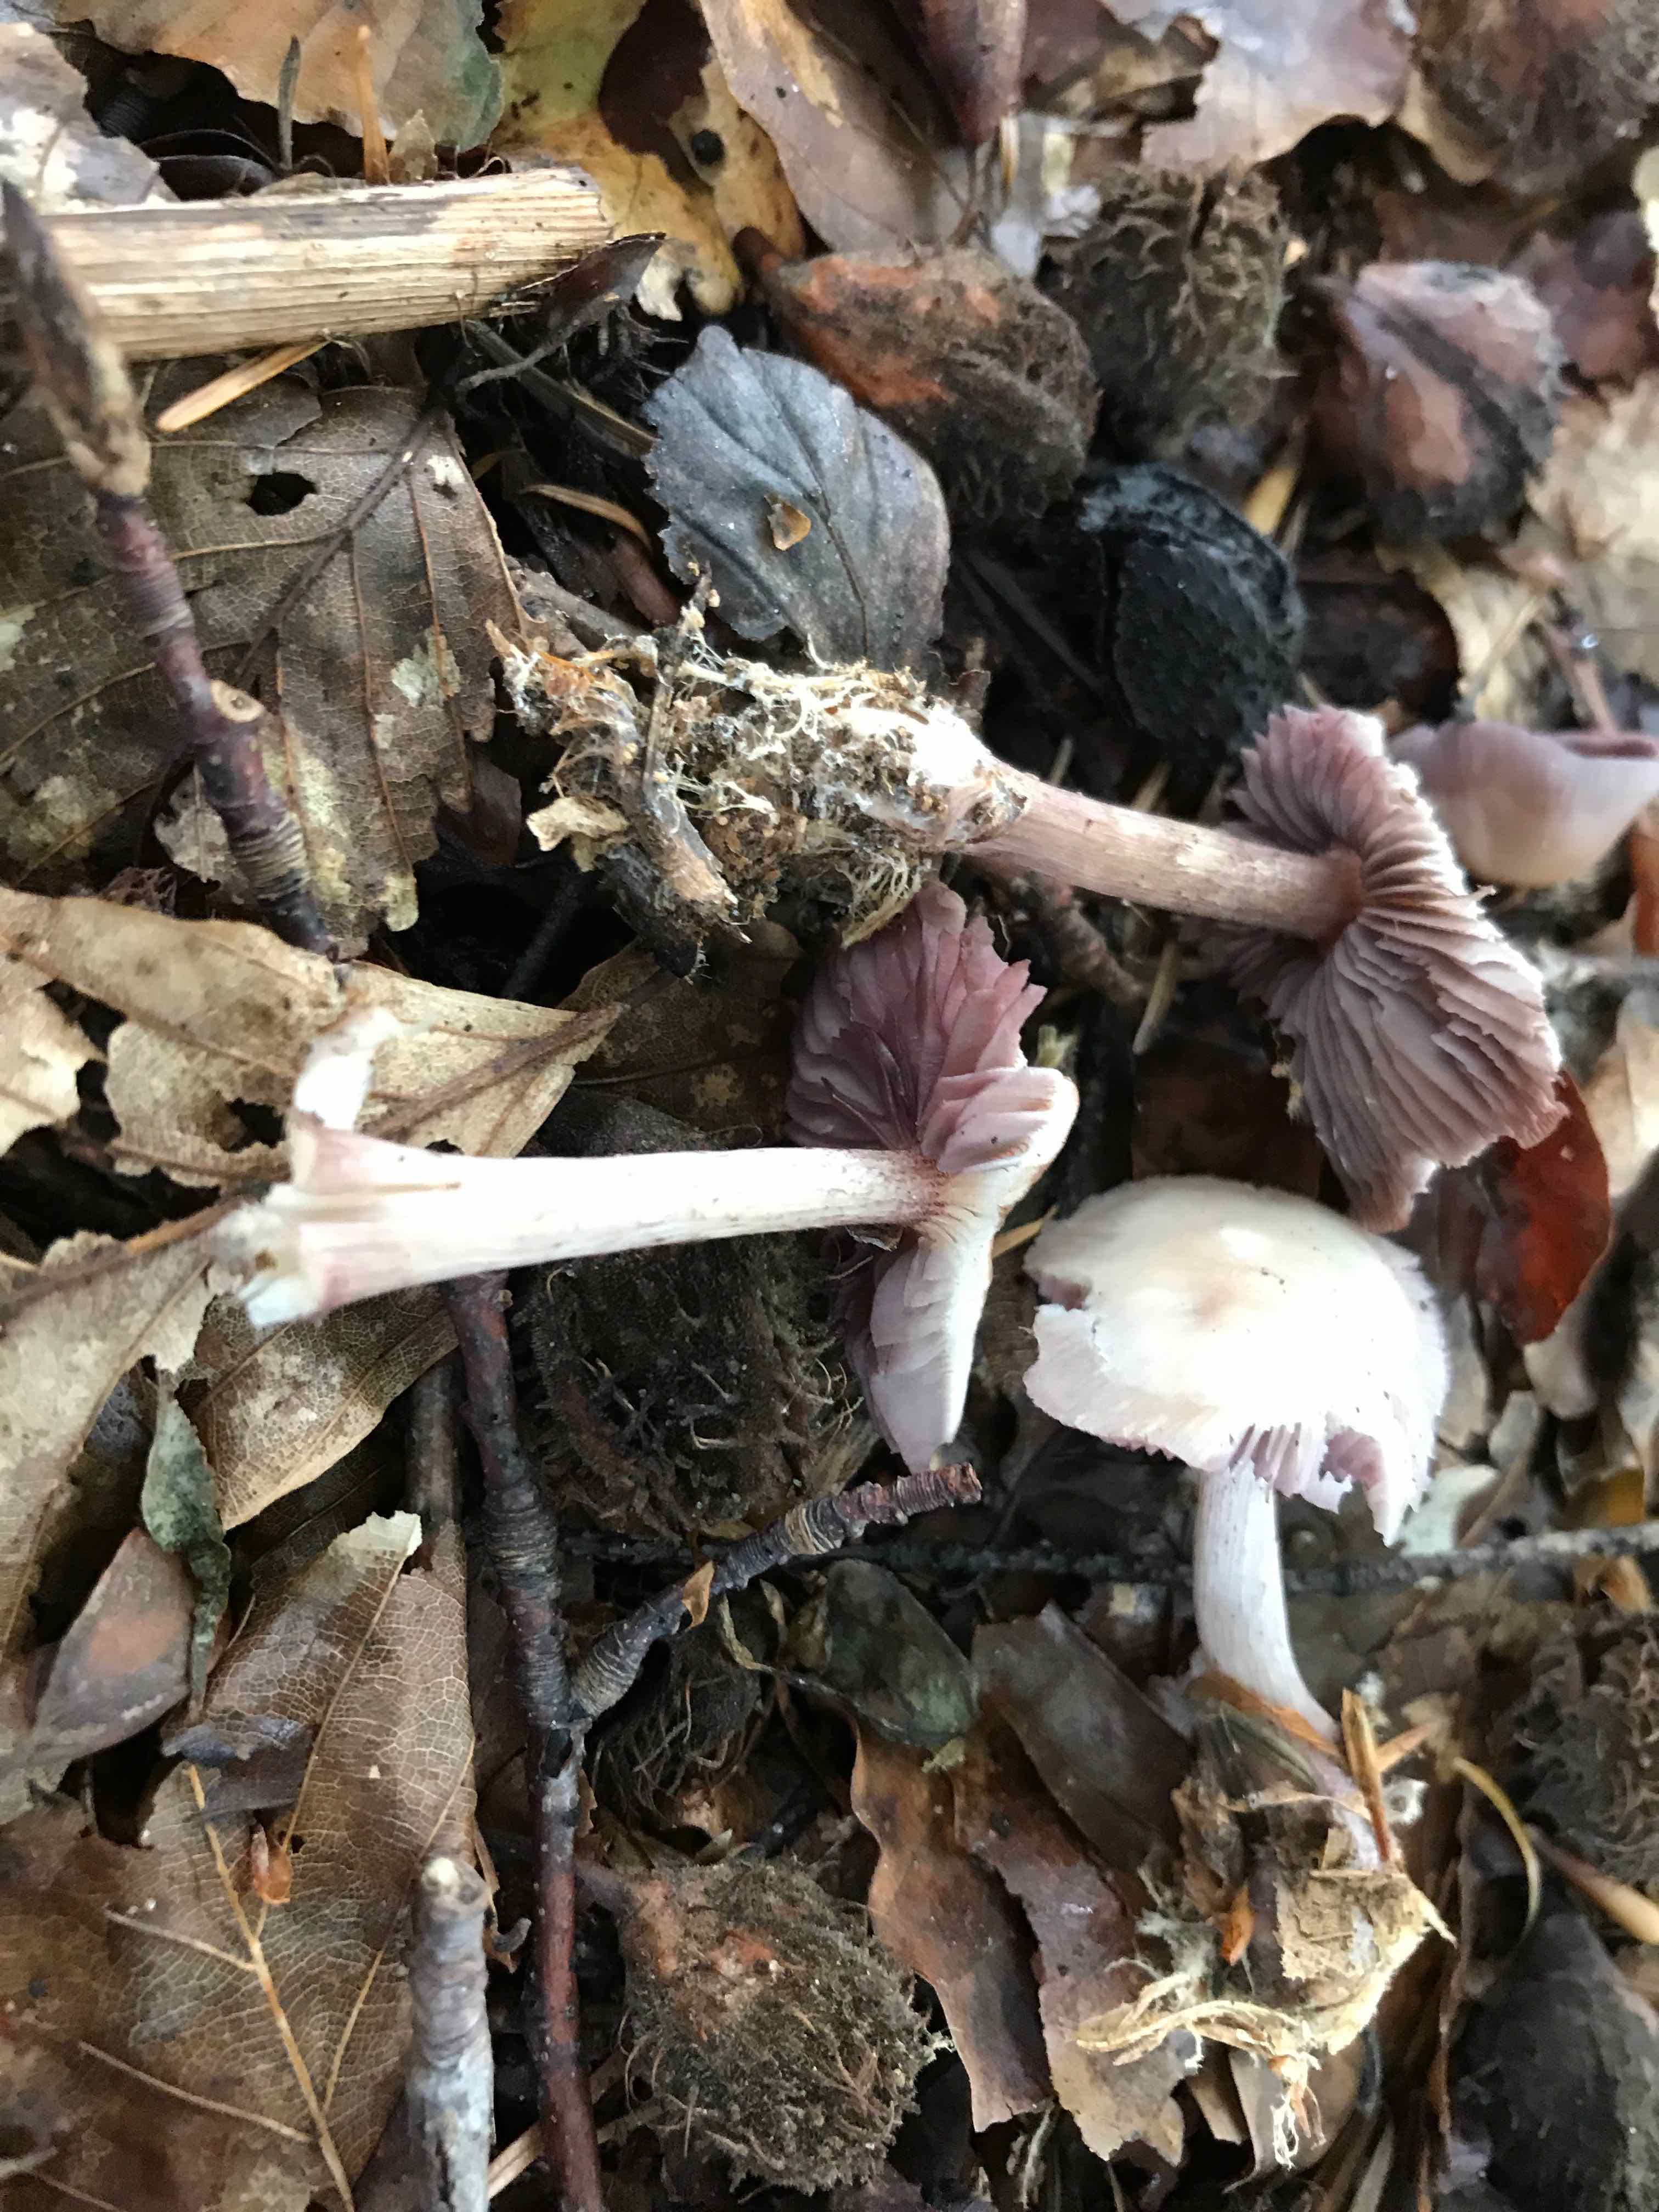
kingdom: Fungi
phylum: Basidiomycota
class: Agaricomycetes
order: Agaricales
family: Mycenaceae
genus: Mycena
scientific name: Mycena pelianthina
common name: mørkbladet huesvamp
